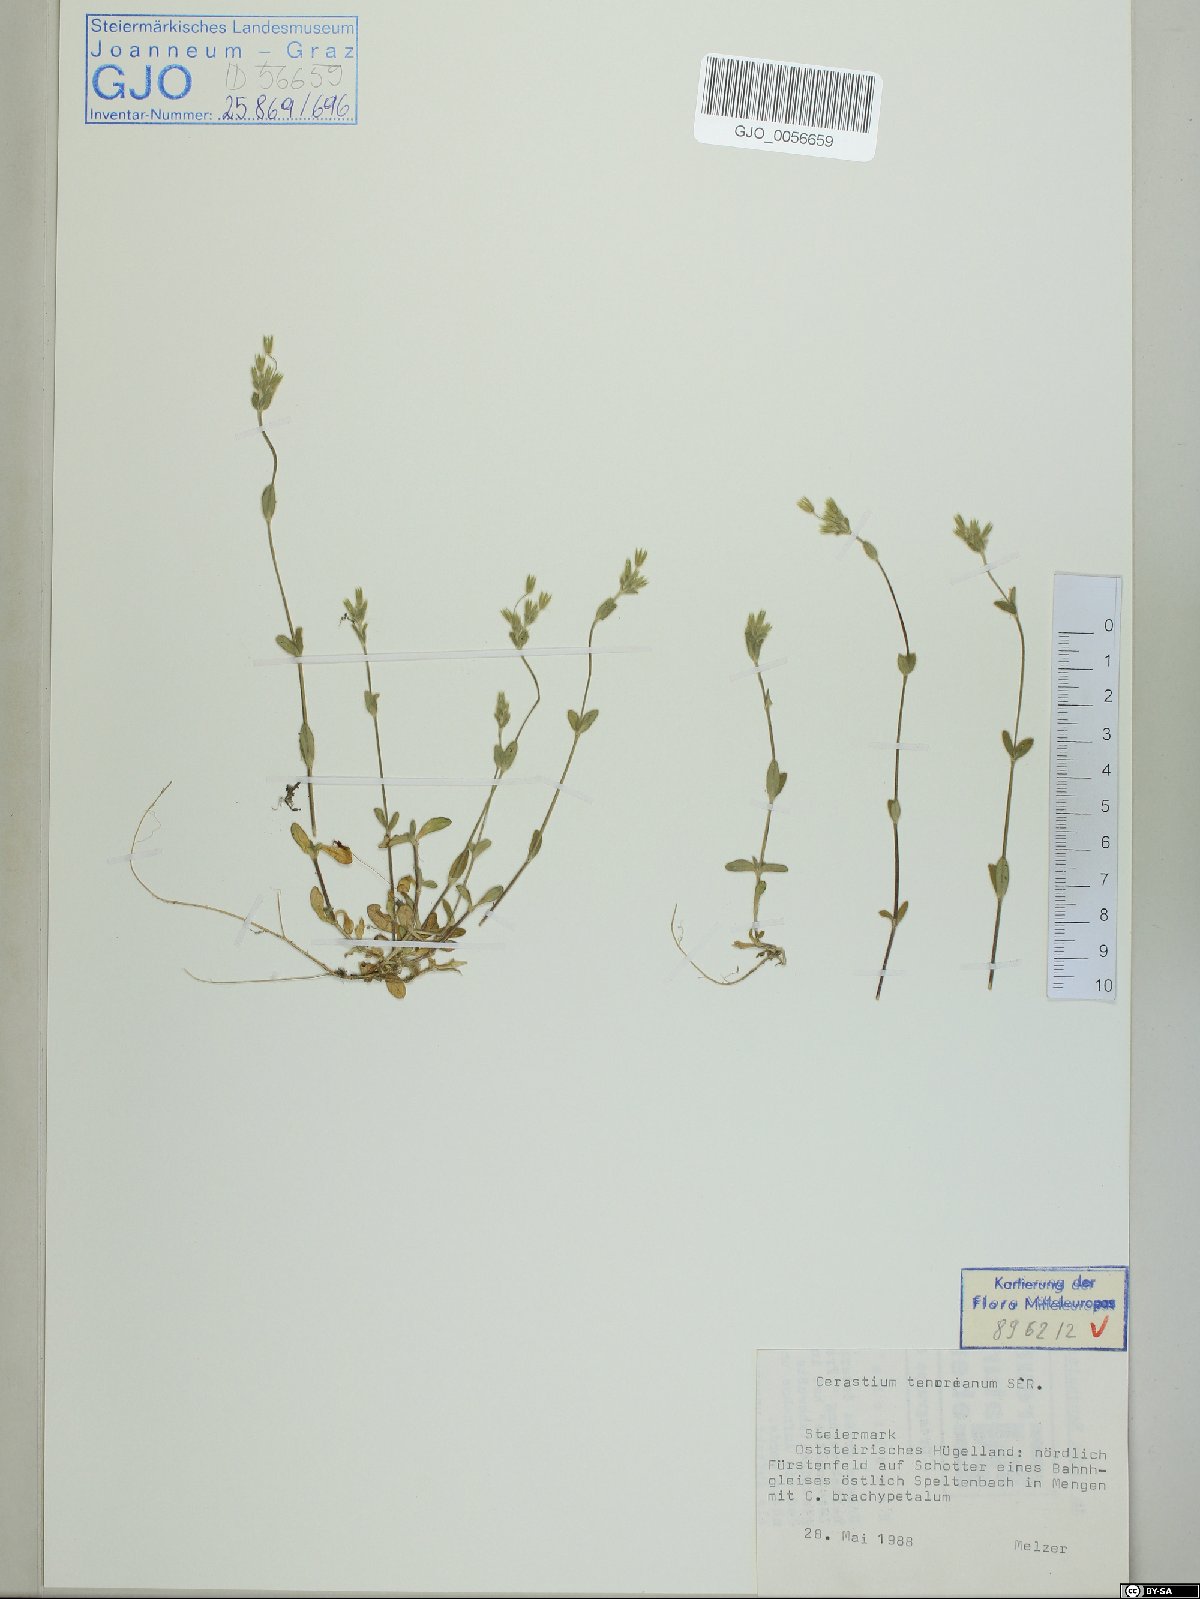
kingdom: Plantae
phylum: Tracheophyta
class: Magnoliopsida
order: Caryophyllales
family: Caryophyllaceae
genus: Cerastium
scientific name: Cerastium tenoreanum
